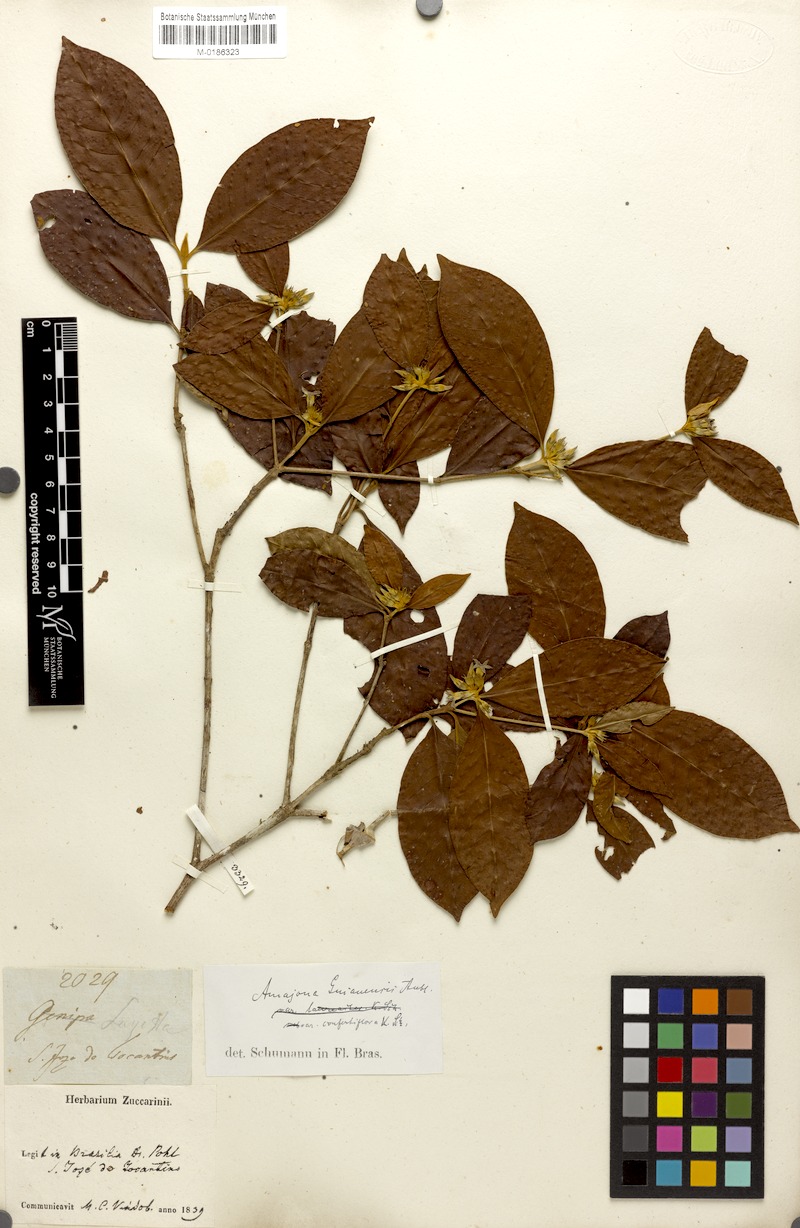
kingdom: Plantae
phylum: Tracheophyta
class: Magnoliopsida
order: Gentianales
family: Rubiaceae
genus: Amaioua
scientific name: Amaioua intermedia
